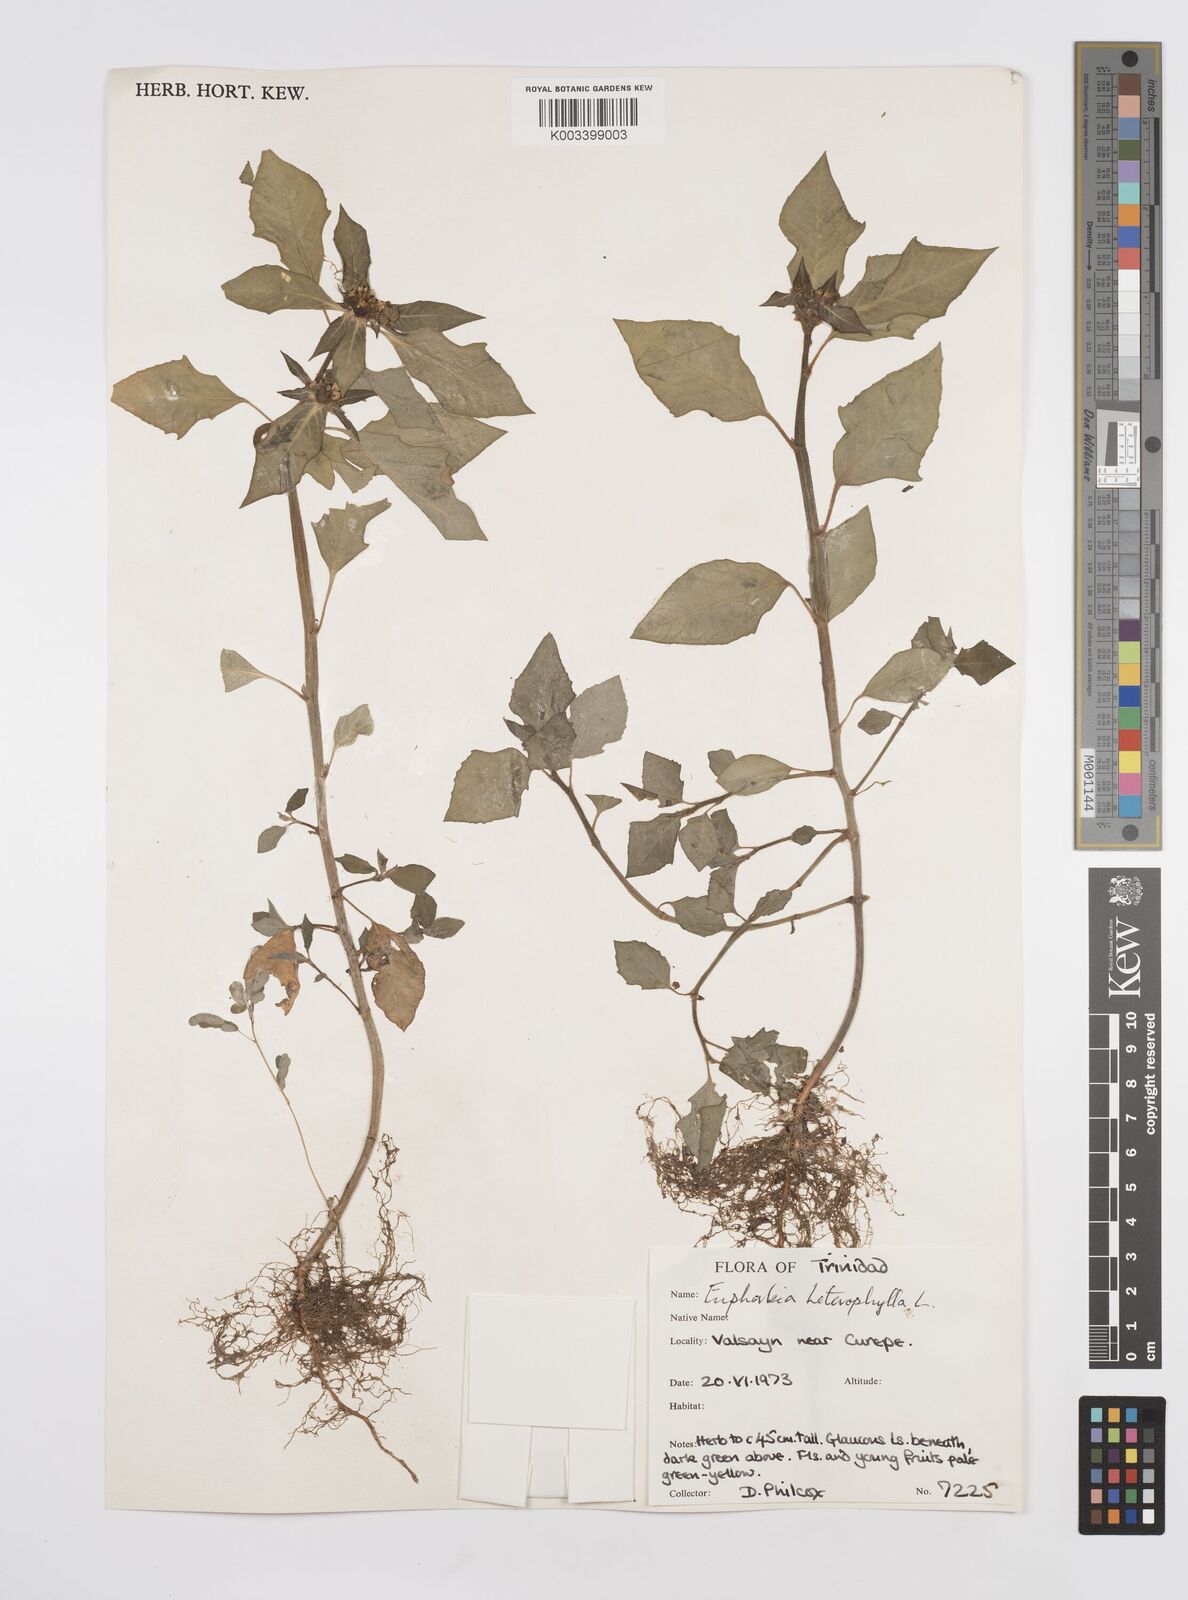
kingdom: Plantae
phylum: Tracheophyta
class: Magnoliopsida
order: Malpighiales
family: Euphorbiaceae
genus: Euphorbia
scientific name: Euphorbia heterophylla
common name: Mexican fireplant
